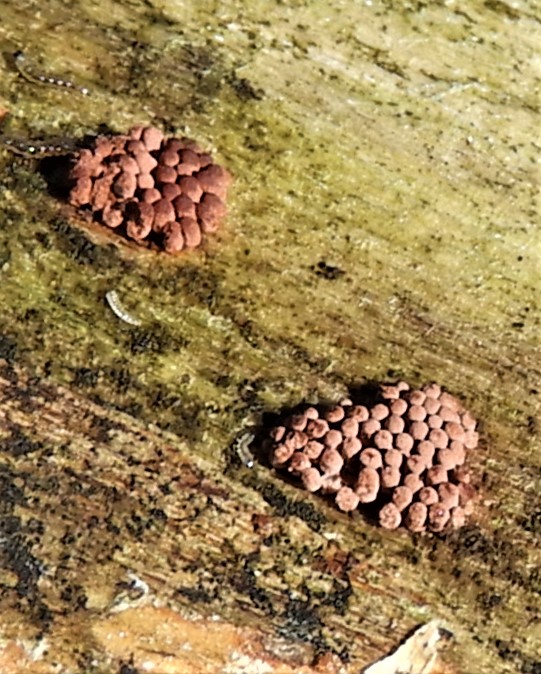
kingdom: Protozoa
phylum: Amoebozoa
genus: Arcyria
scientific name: Arcyria
